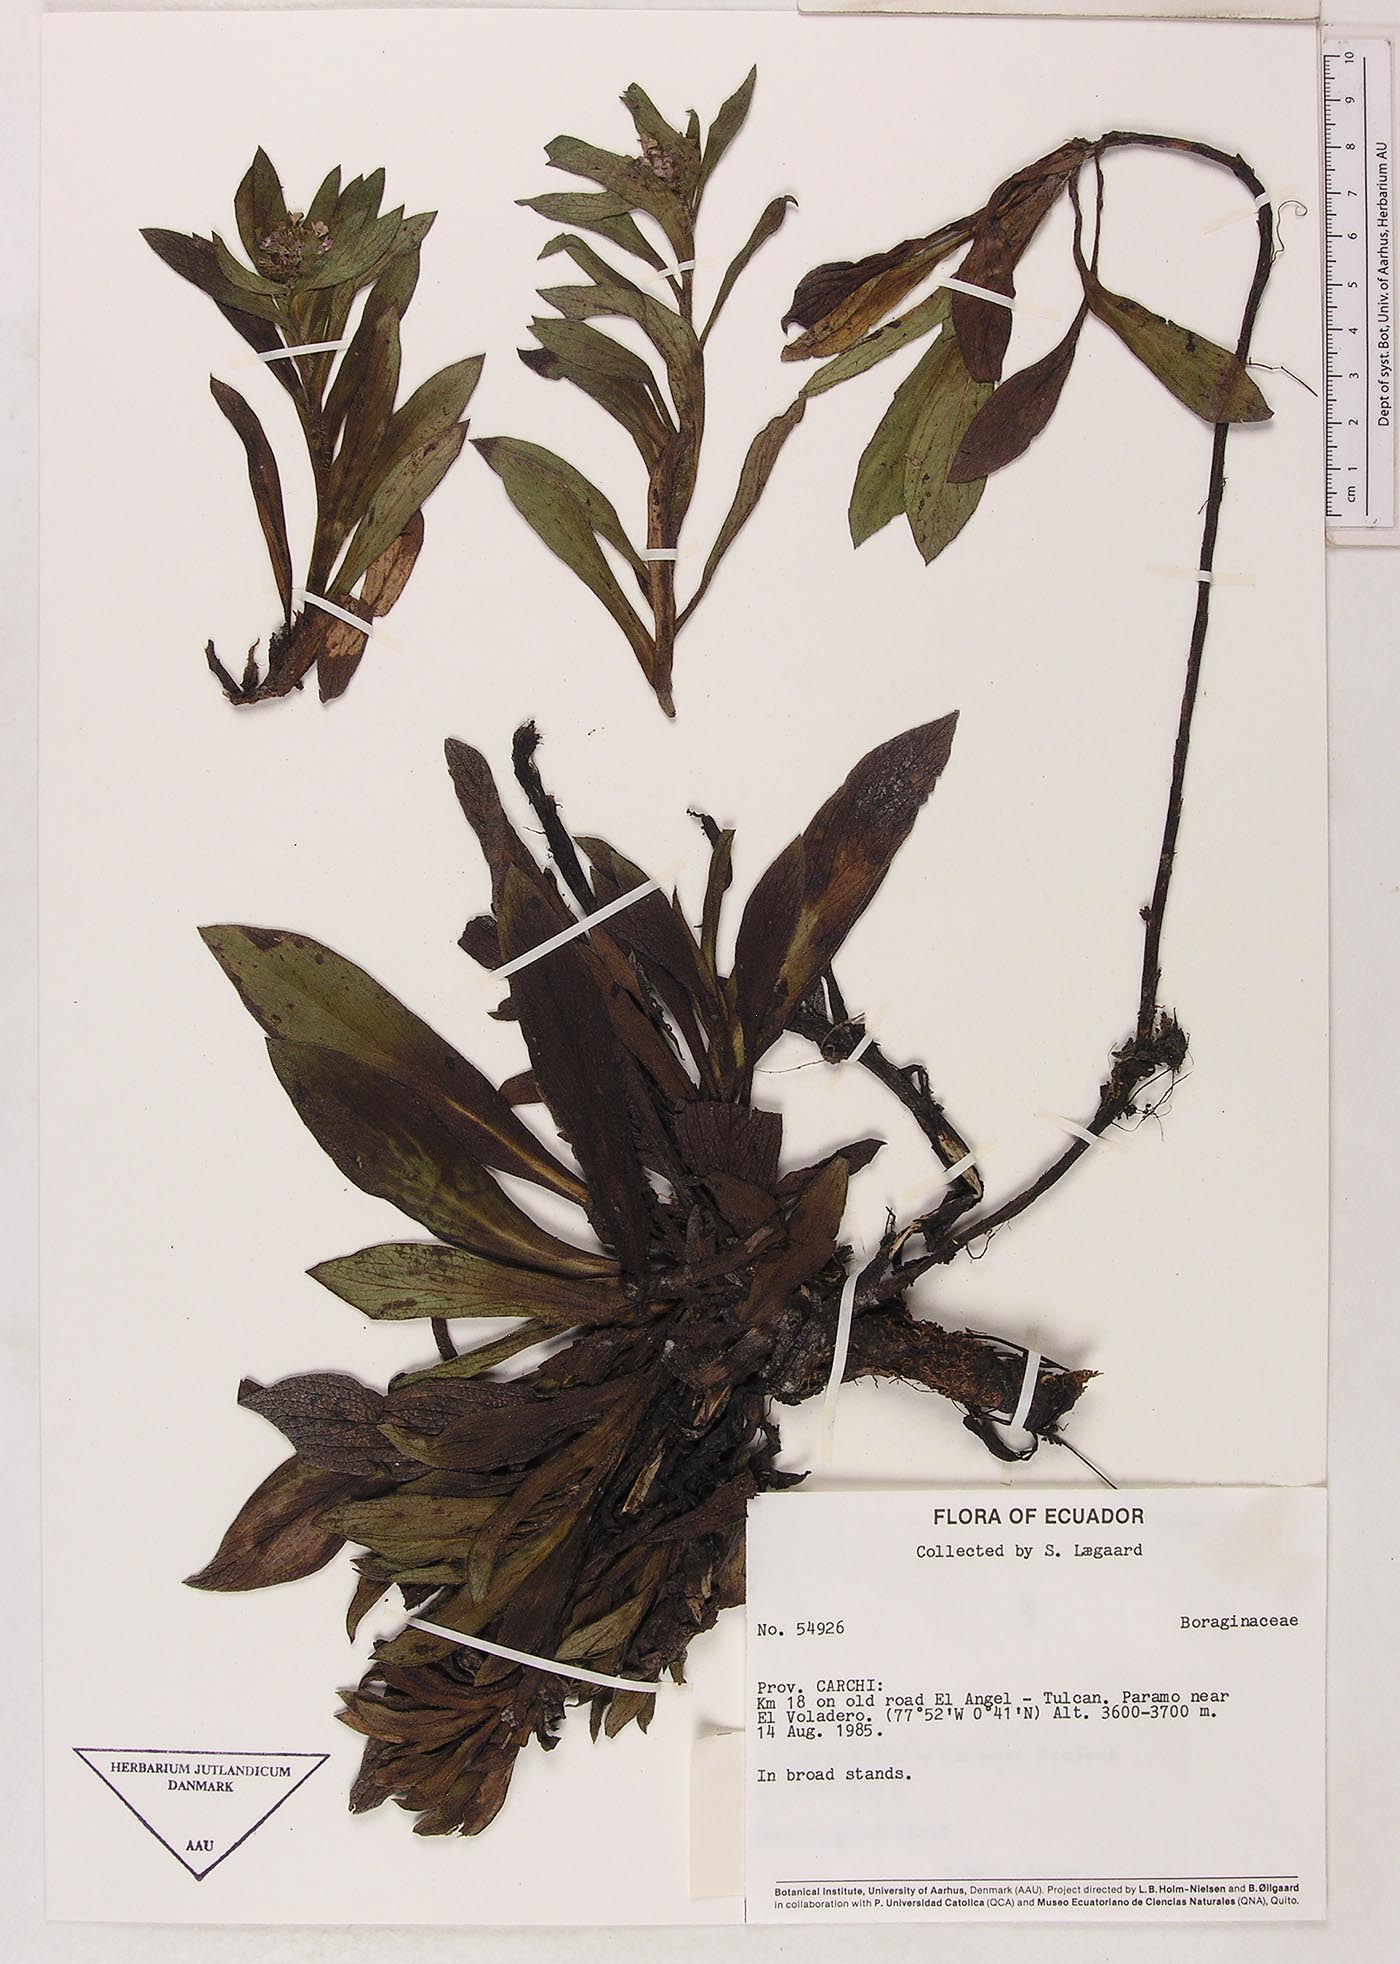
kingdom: Plantae
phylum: Tracheophyta
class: Magnoliopsida
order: Boraginales
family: Boraginaceae
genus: Moritzia
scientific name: Moritzia lindenii
